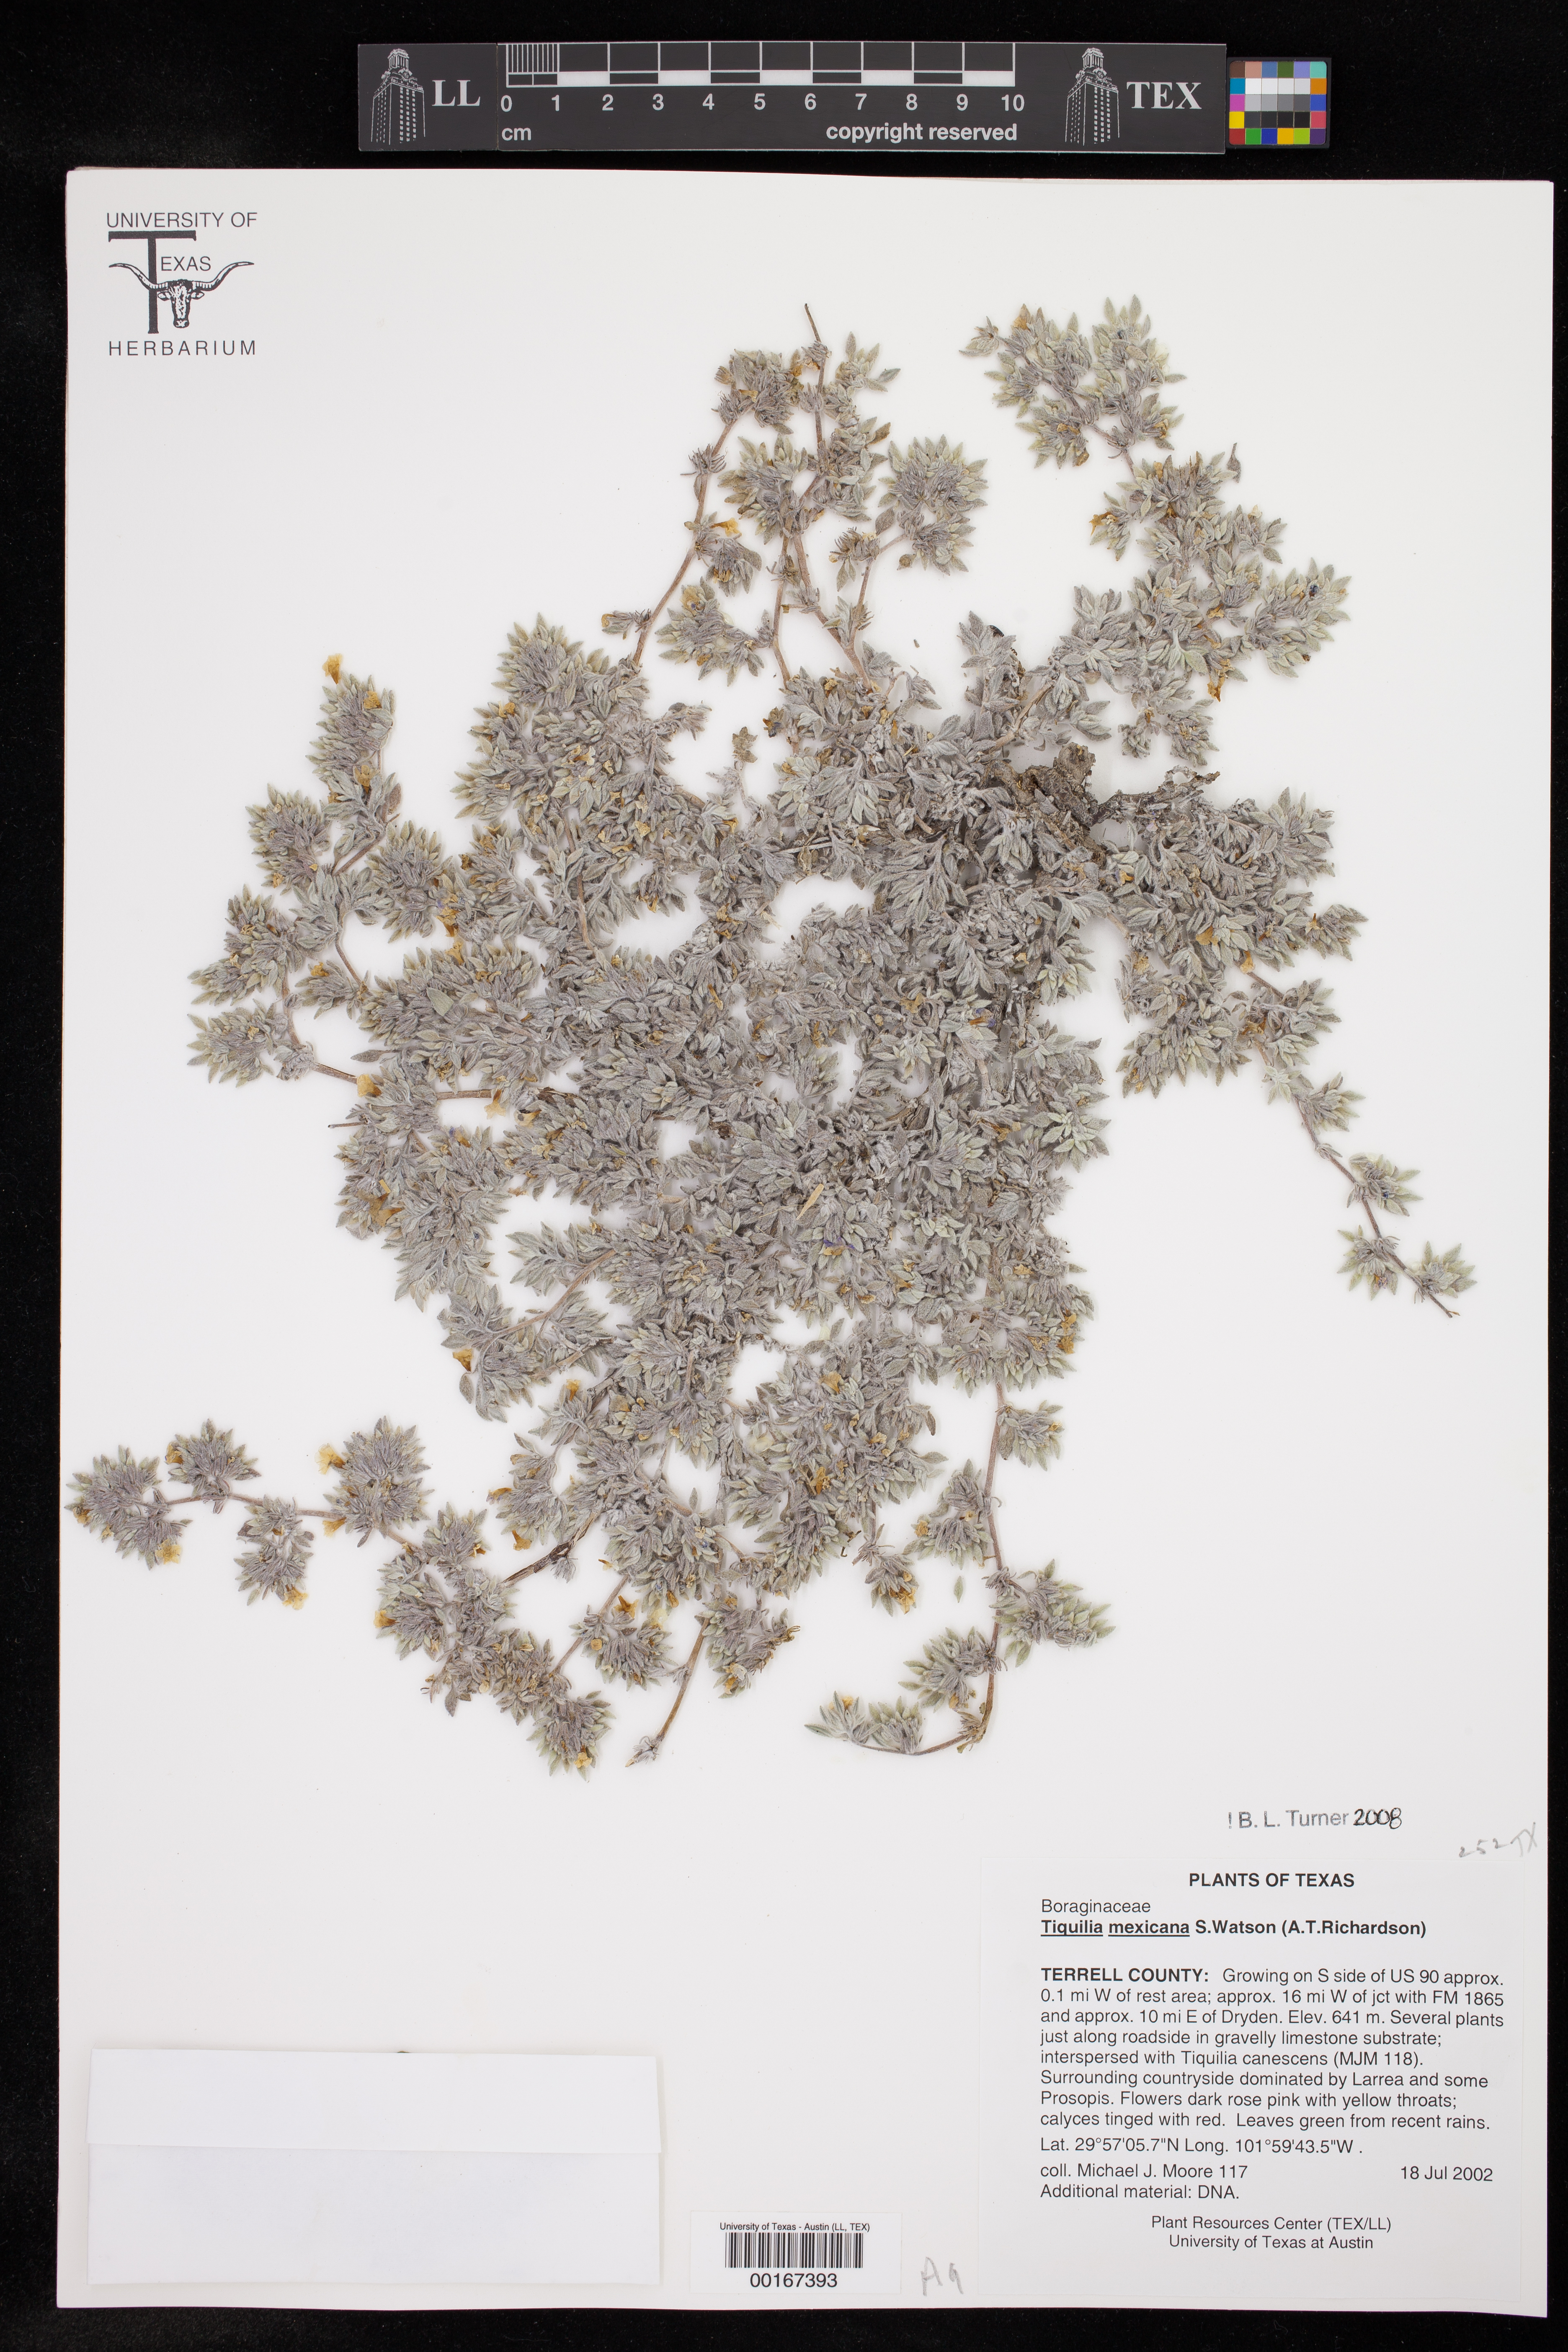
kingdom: Plantae
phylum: Tracheophyta
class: Magnoliopsida
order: Boraginales
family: Ehretiaceae
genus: Tiquilia
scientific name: Tiquilia mexicana
